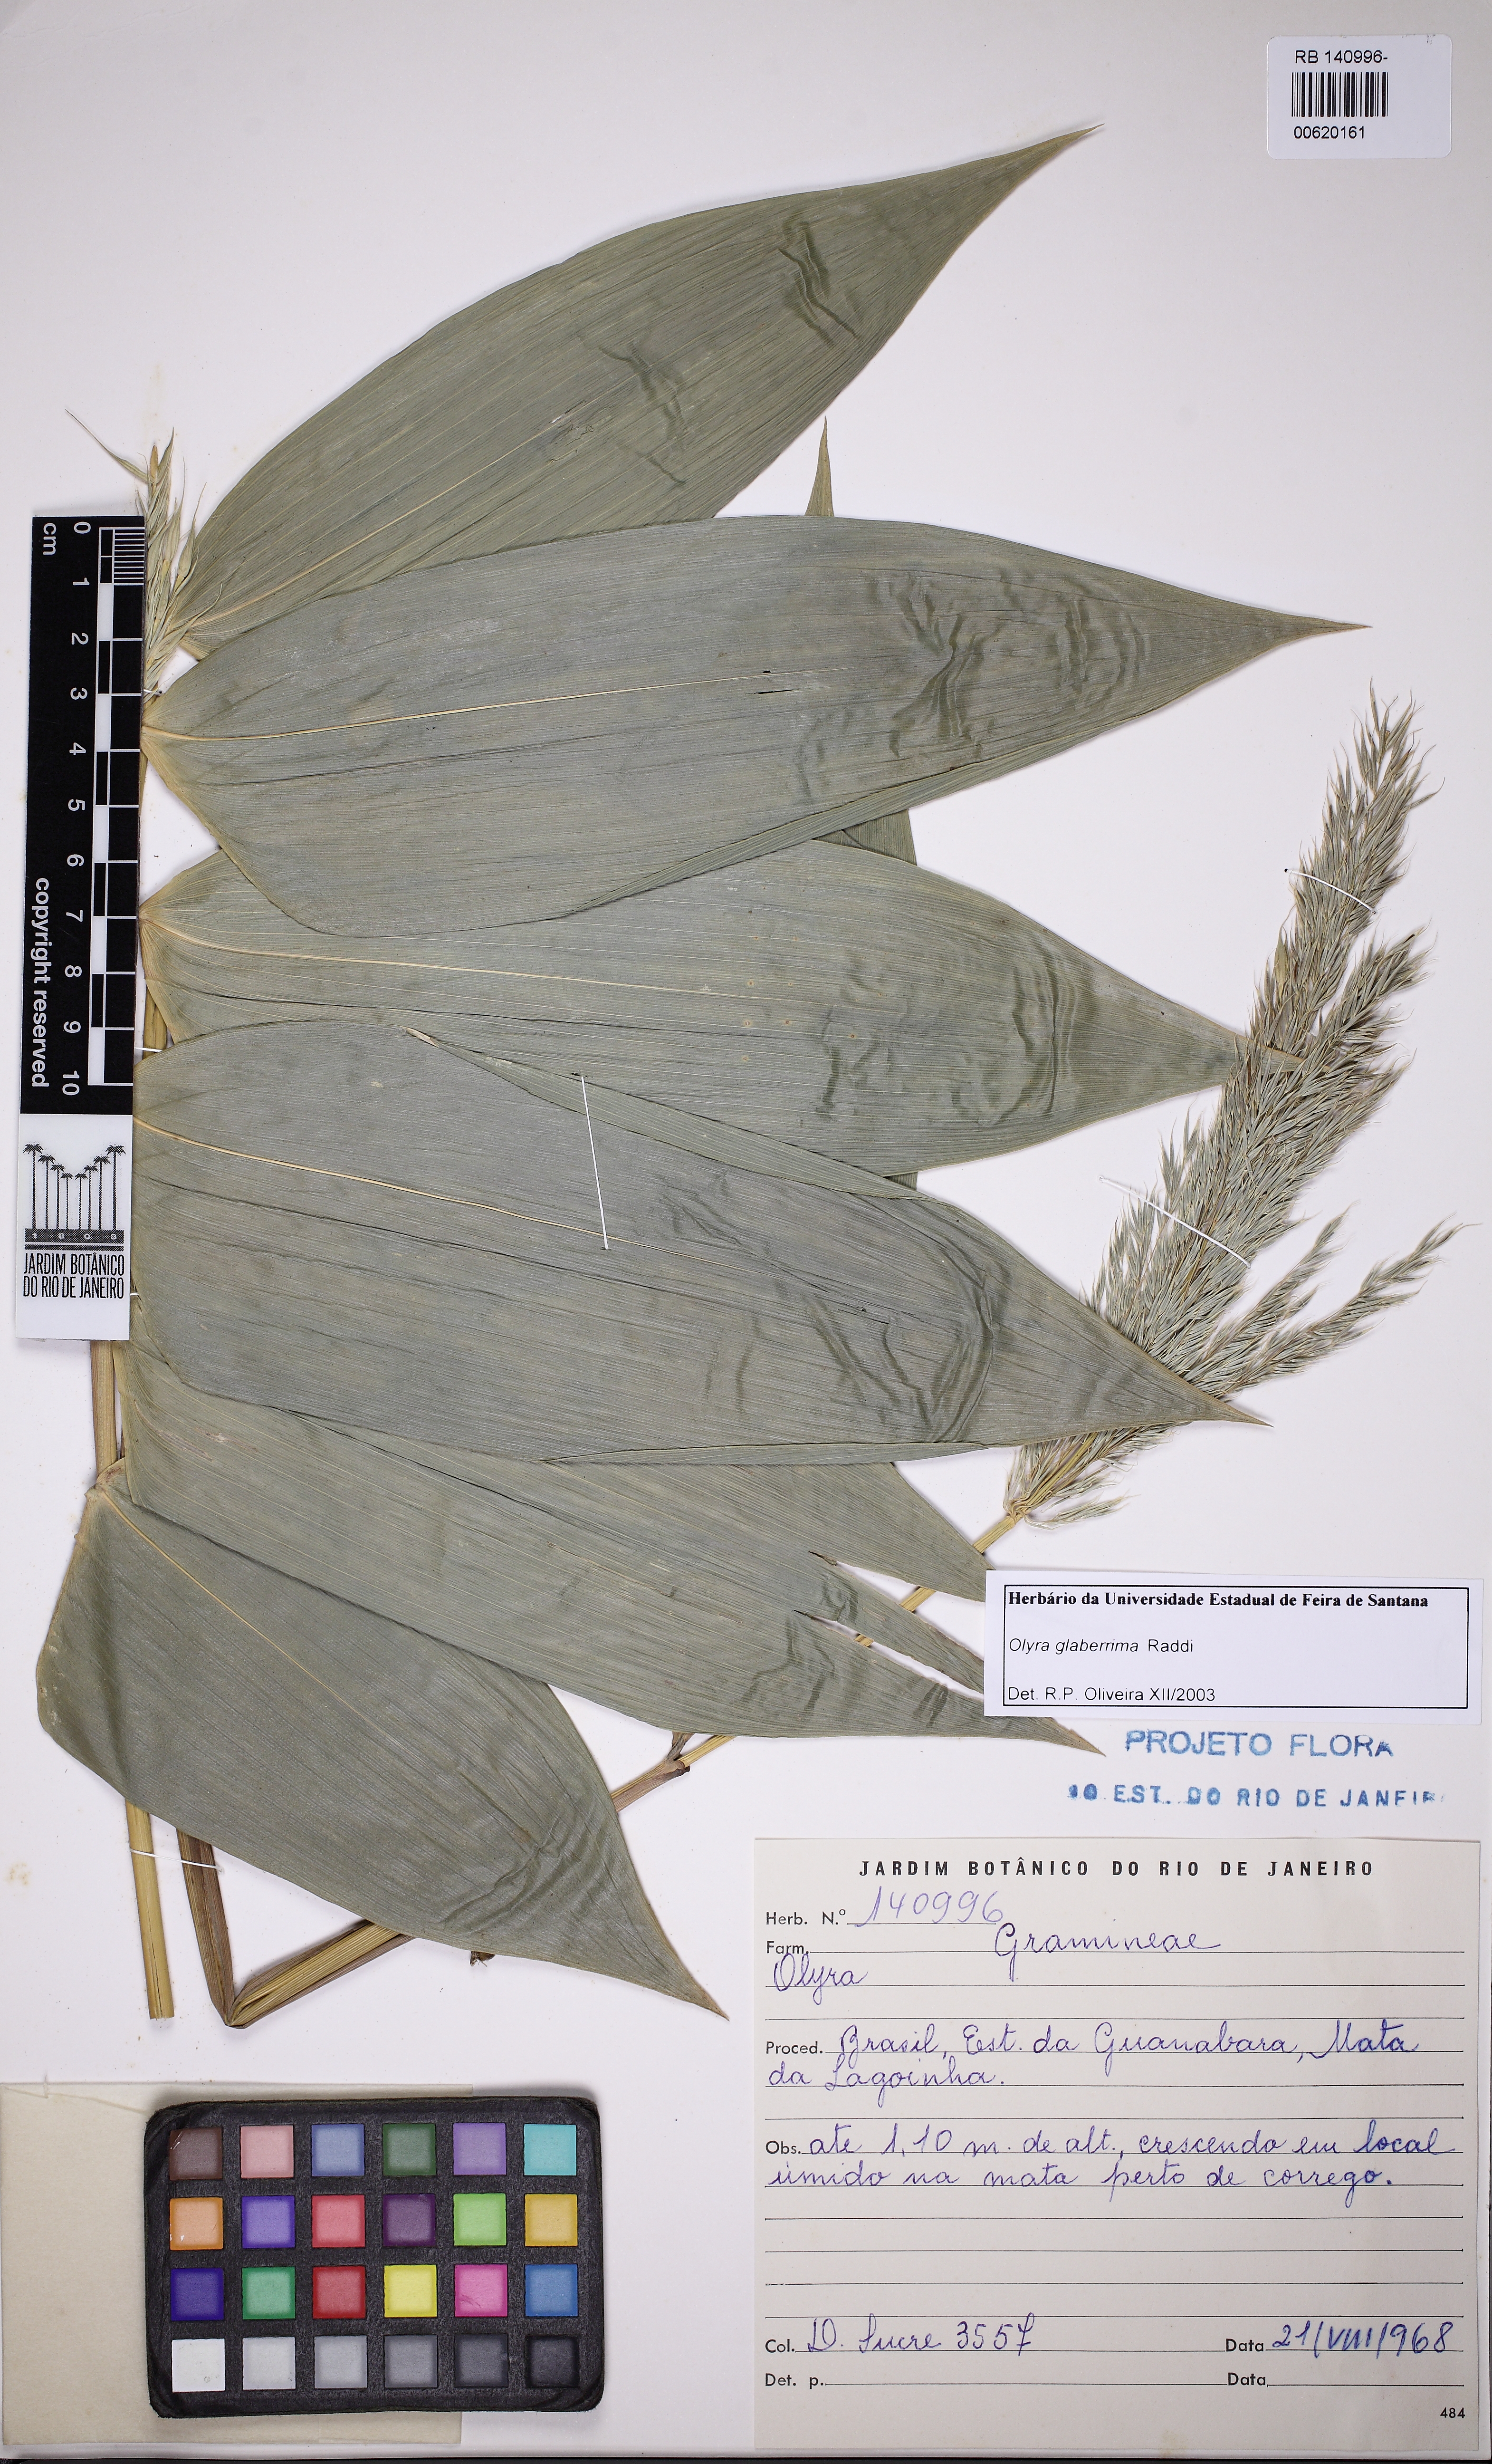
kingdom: Plantae
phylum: Tracheophyta
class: Liliopsida
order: Poales
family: Poaceae
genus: Olyra
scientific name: Olyra glaberrima
